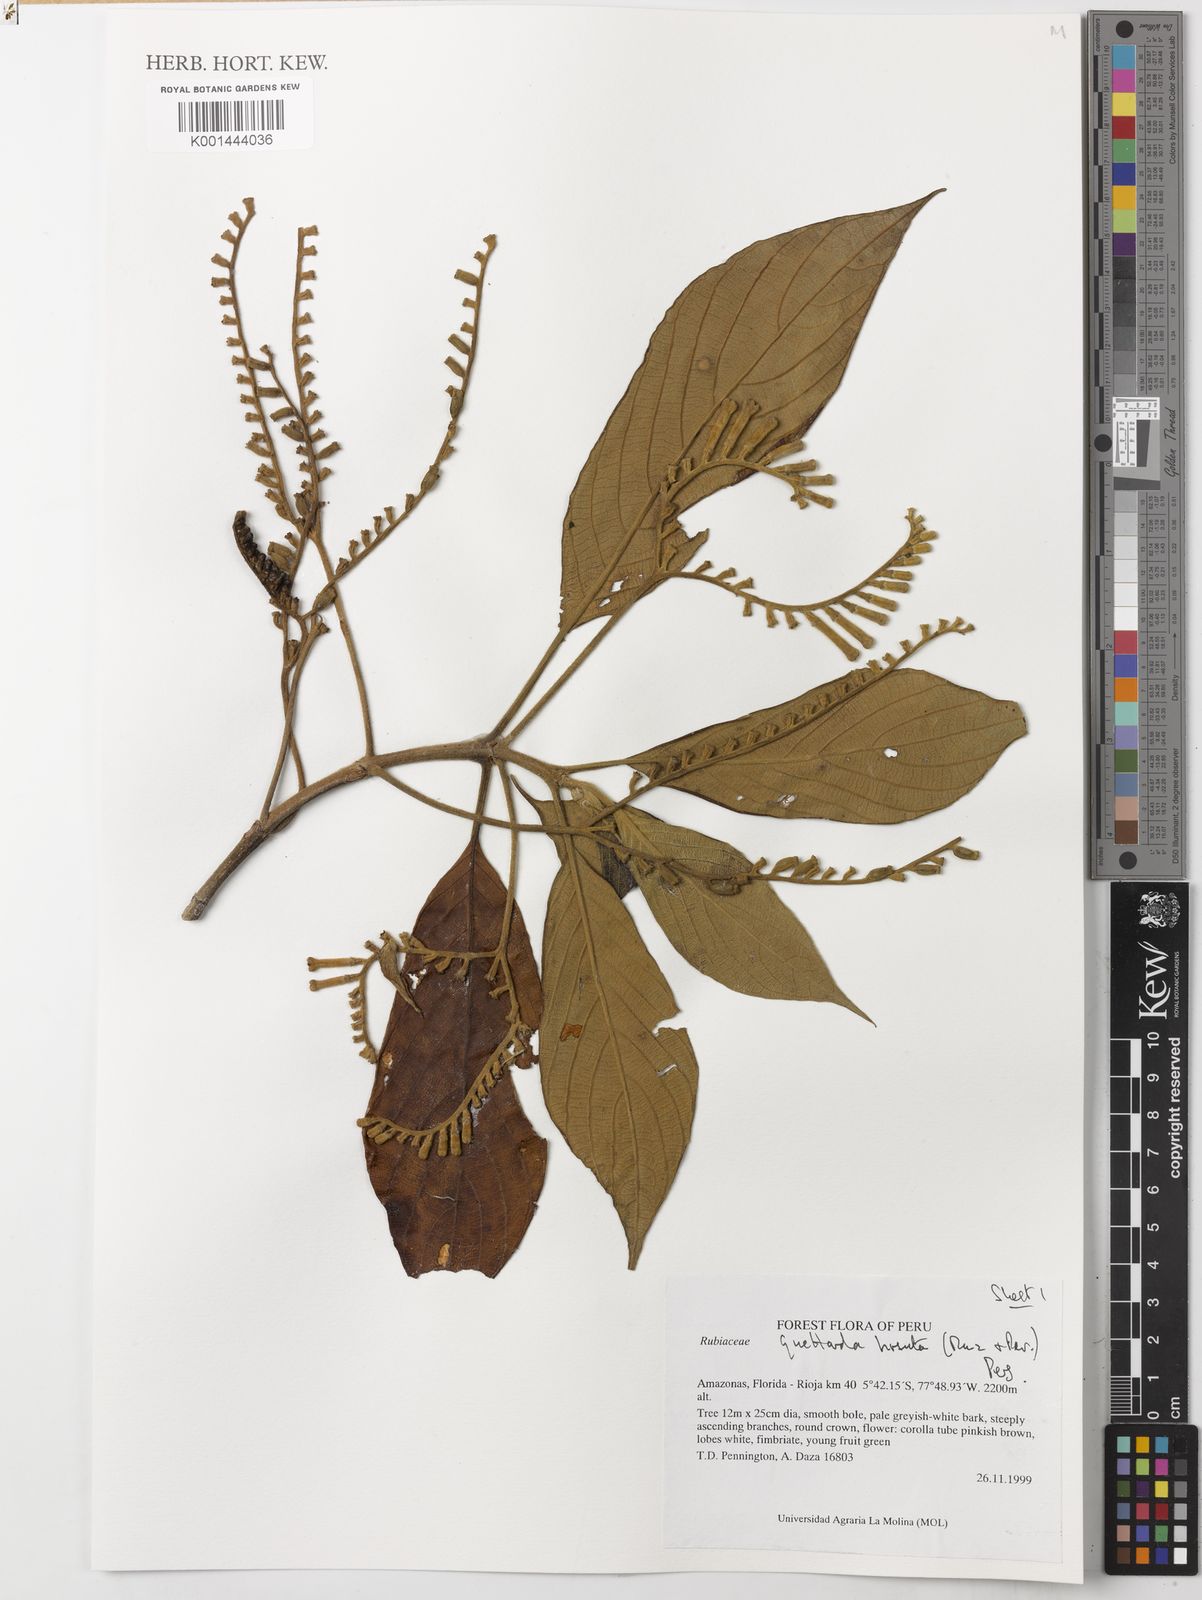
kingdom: Plantae
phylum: Tracheophyta
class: Magnoliopsida
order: Gentianales
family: Rubiaceae
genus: Tournefortiopsis
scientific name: Tournefortiopsis hirsuta
